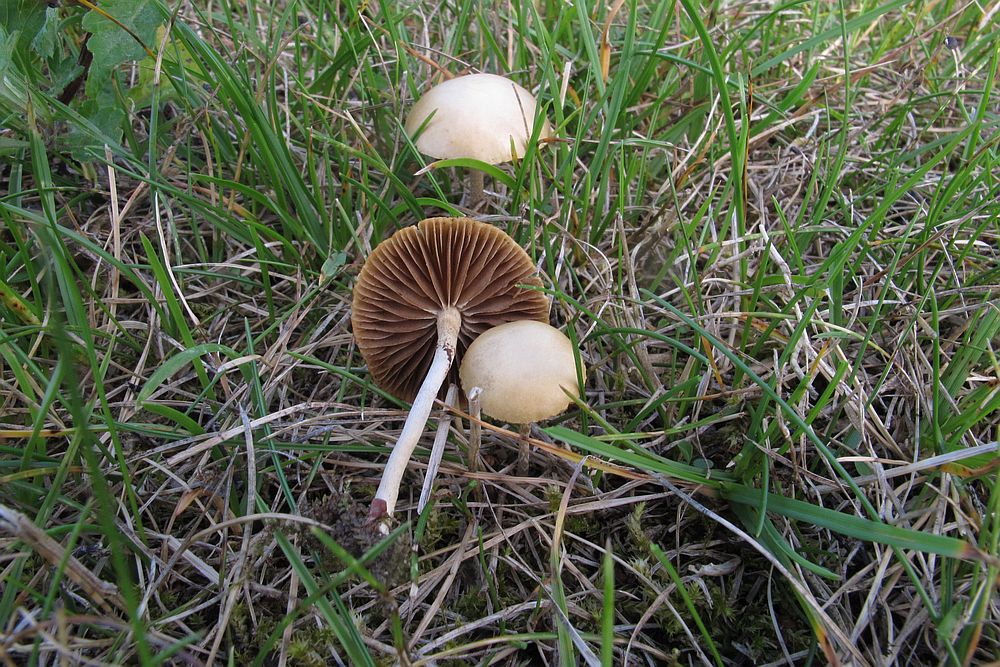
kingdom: Fungi
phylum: Basidiomycota
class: Agaricomycetes
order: Agaricales
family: Strophariaceae
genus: Agrocybe
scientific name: Agrocybe pediades
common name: almindelig agerhat
